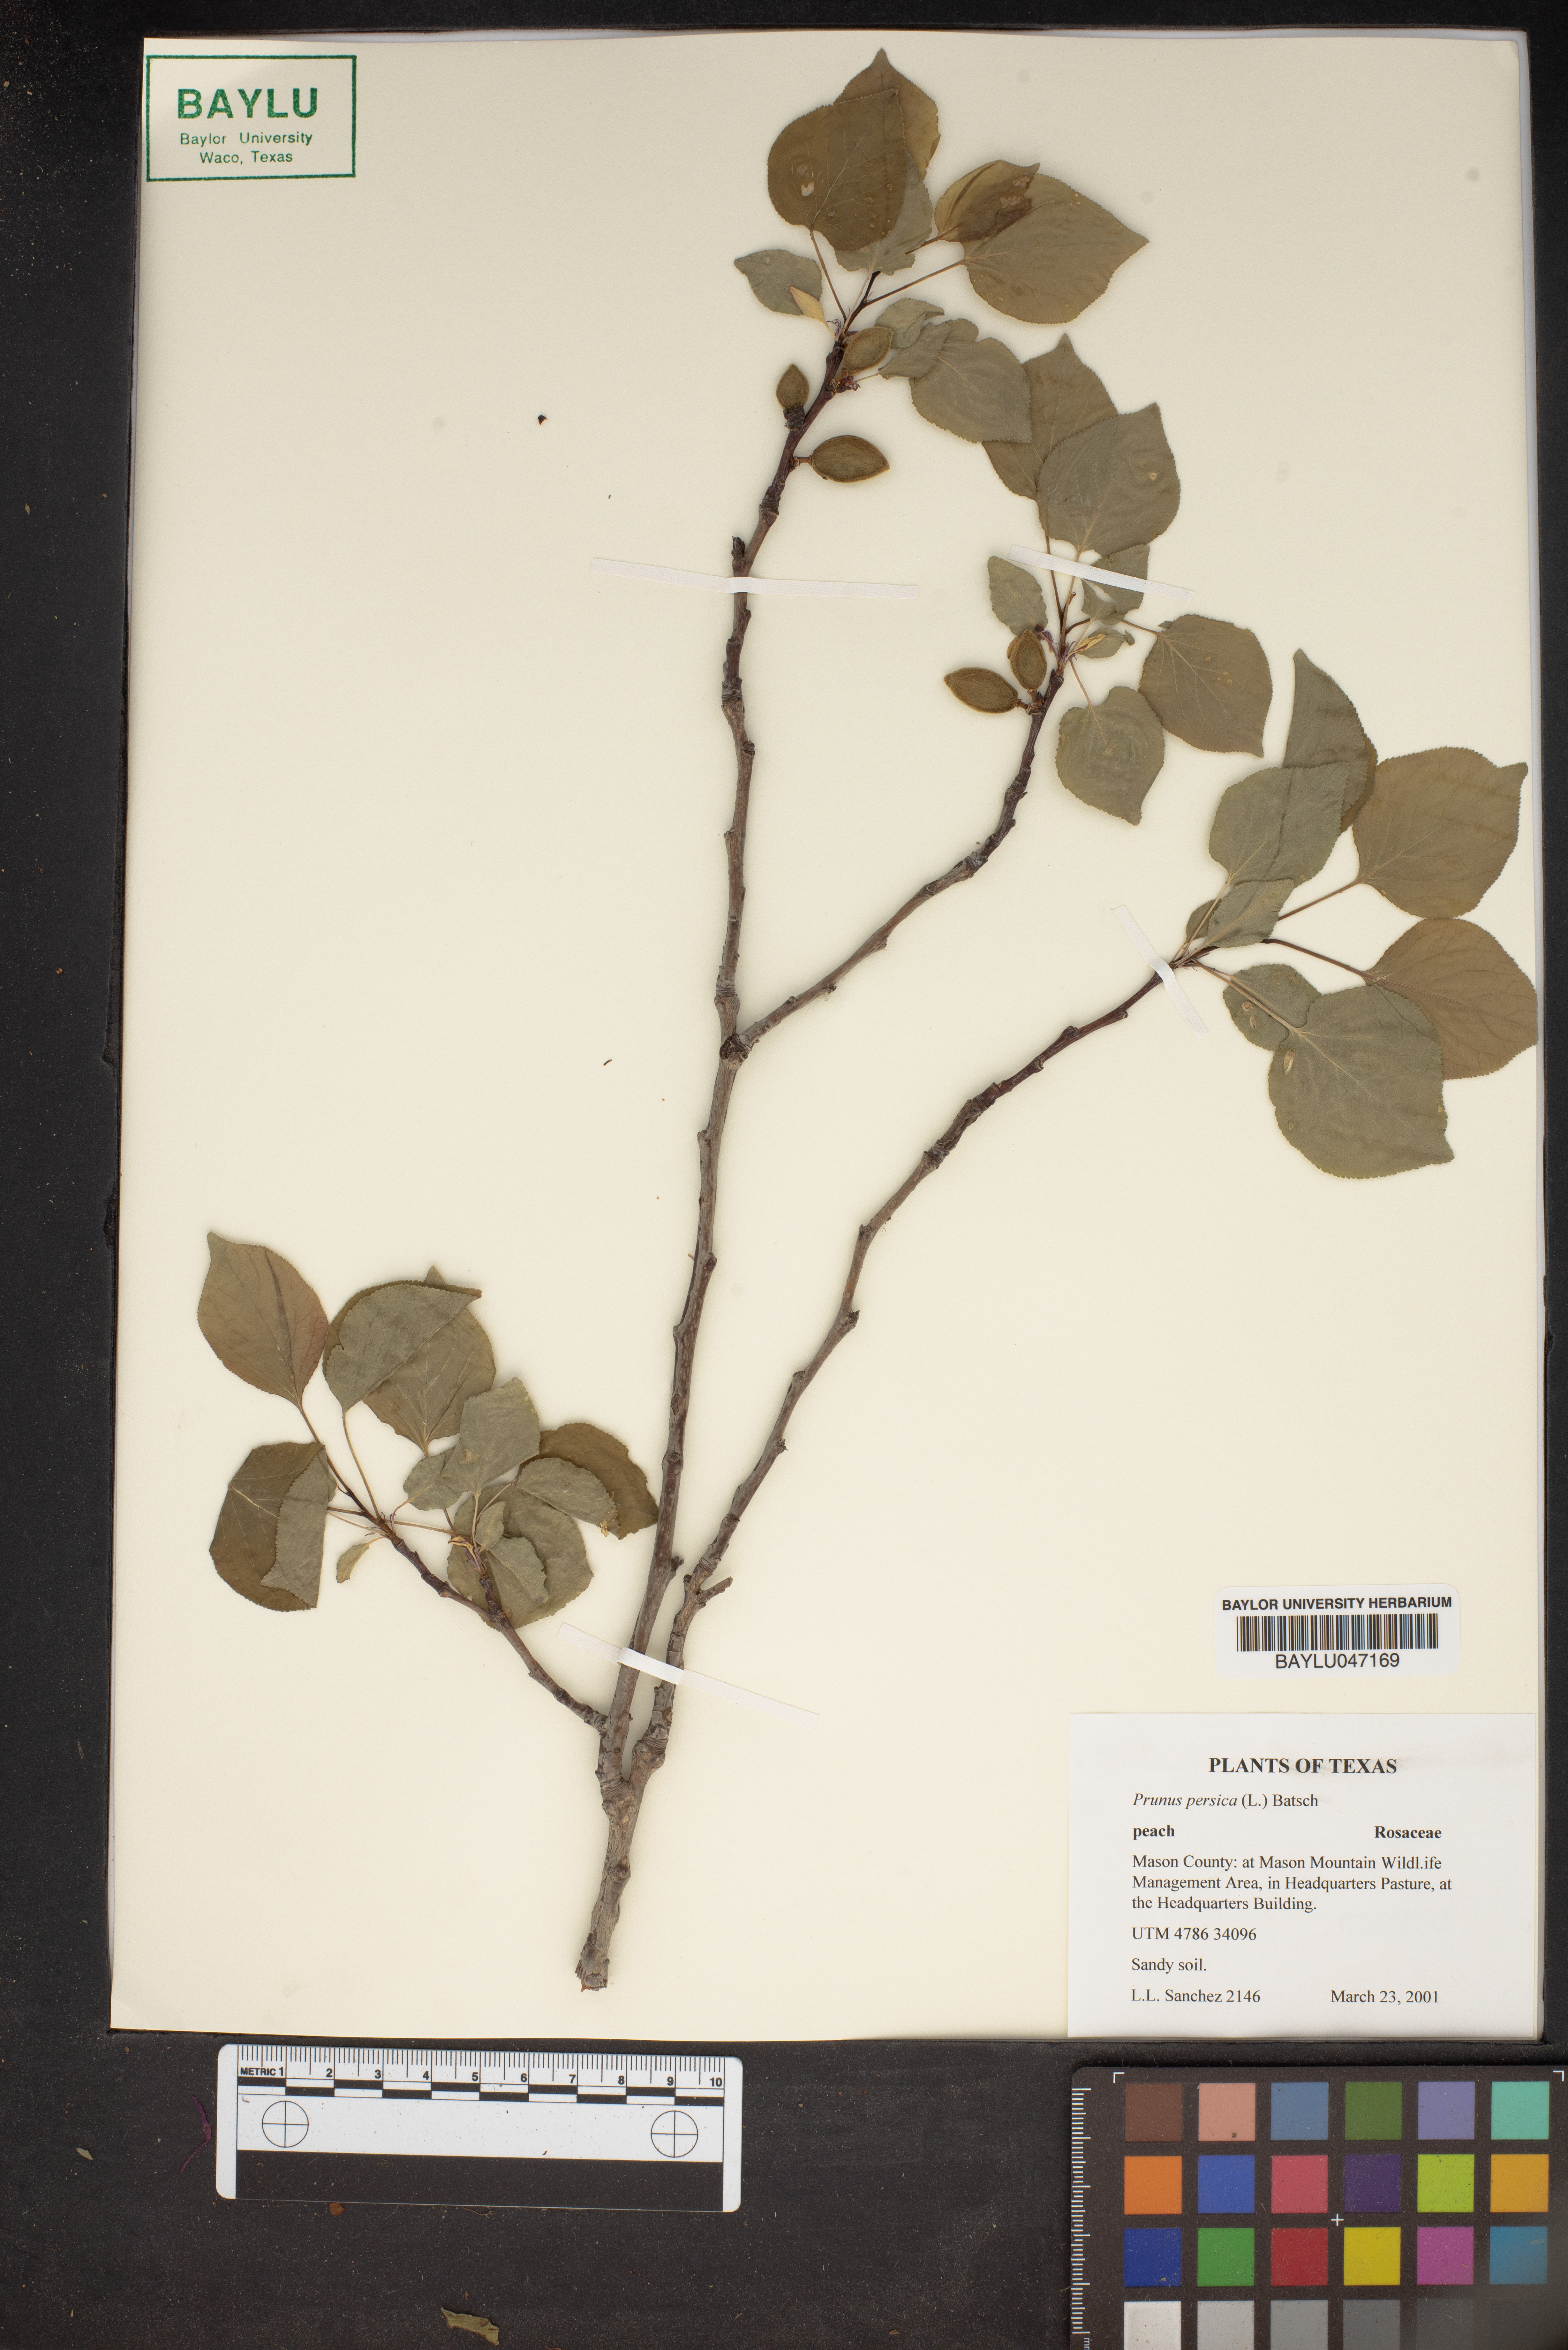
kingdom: Plantae
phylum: Tracheophyta
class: Magnoliopsida
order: Rosales
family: Rosaceae
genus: Prunus
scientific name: Prunus persica
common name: Peach
